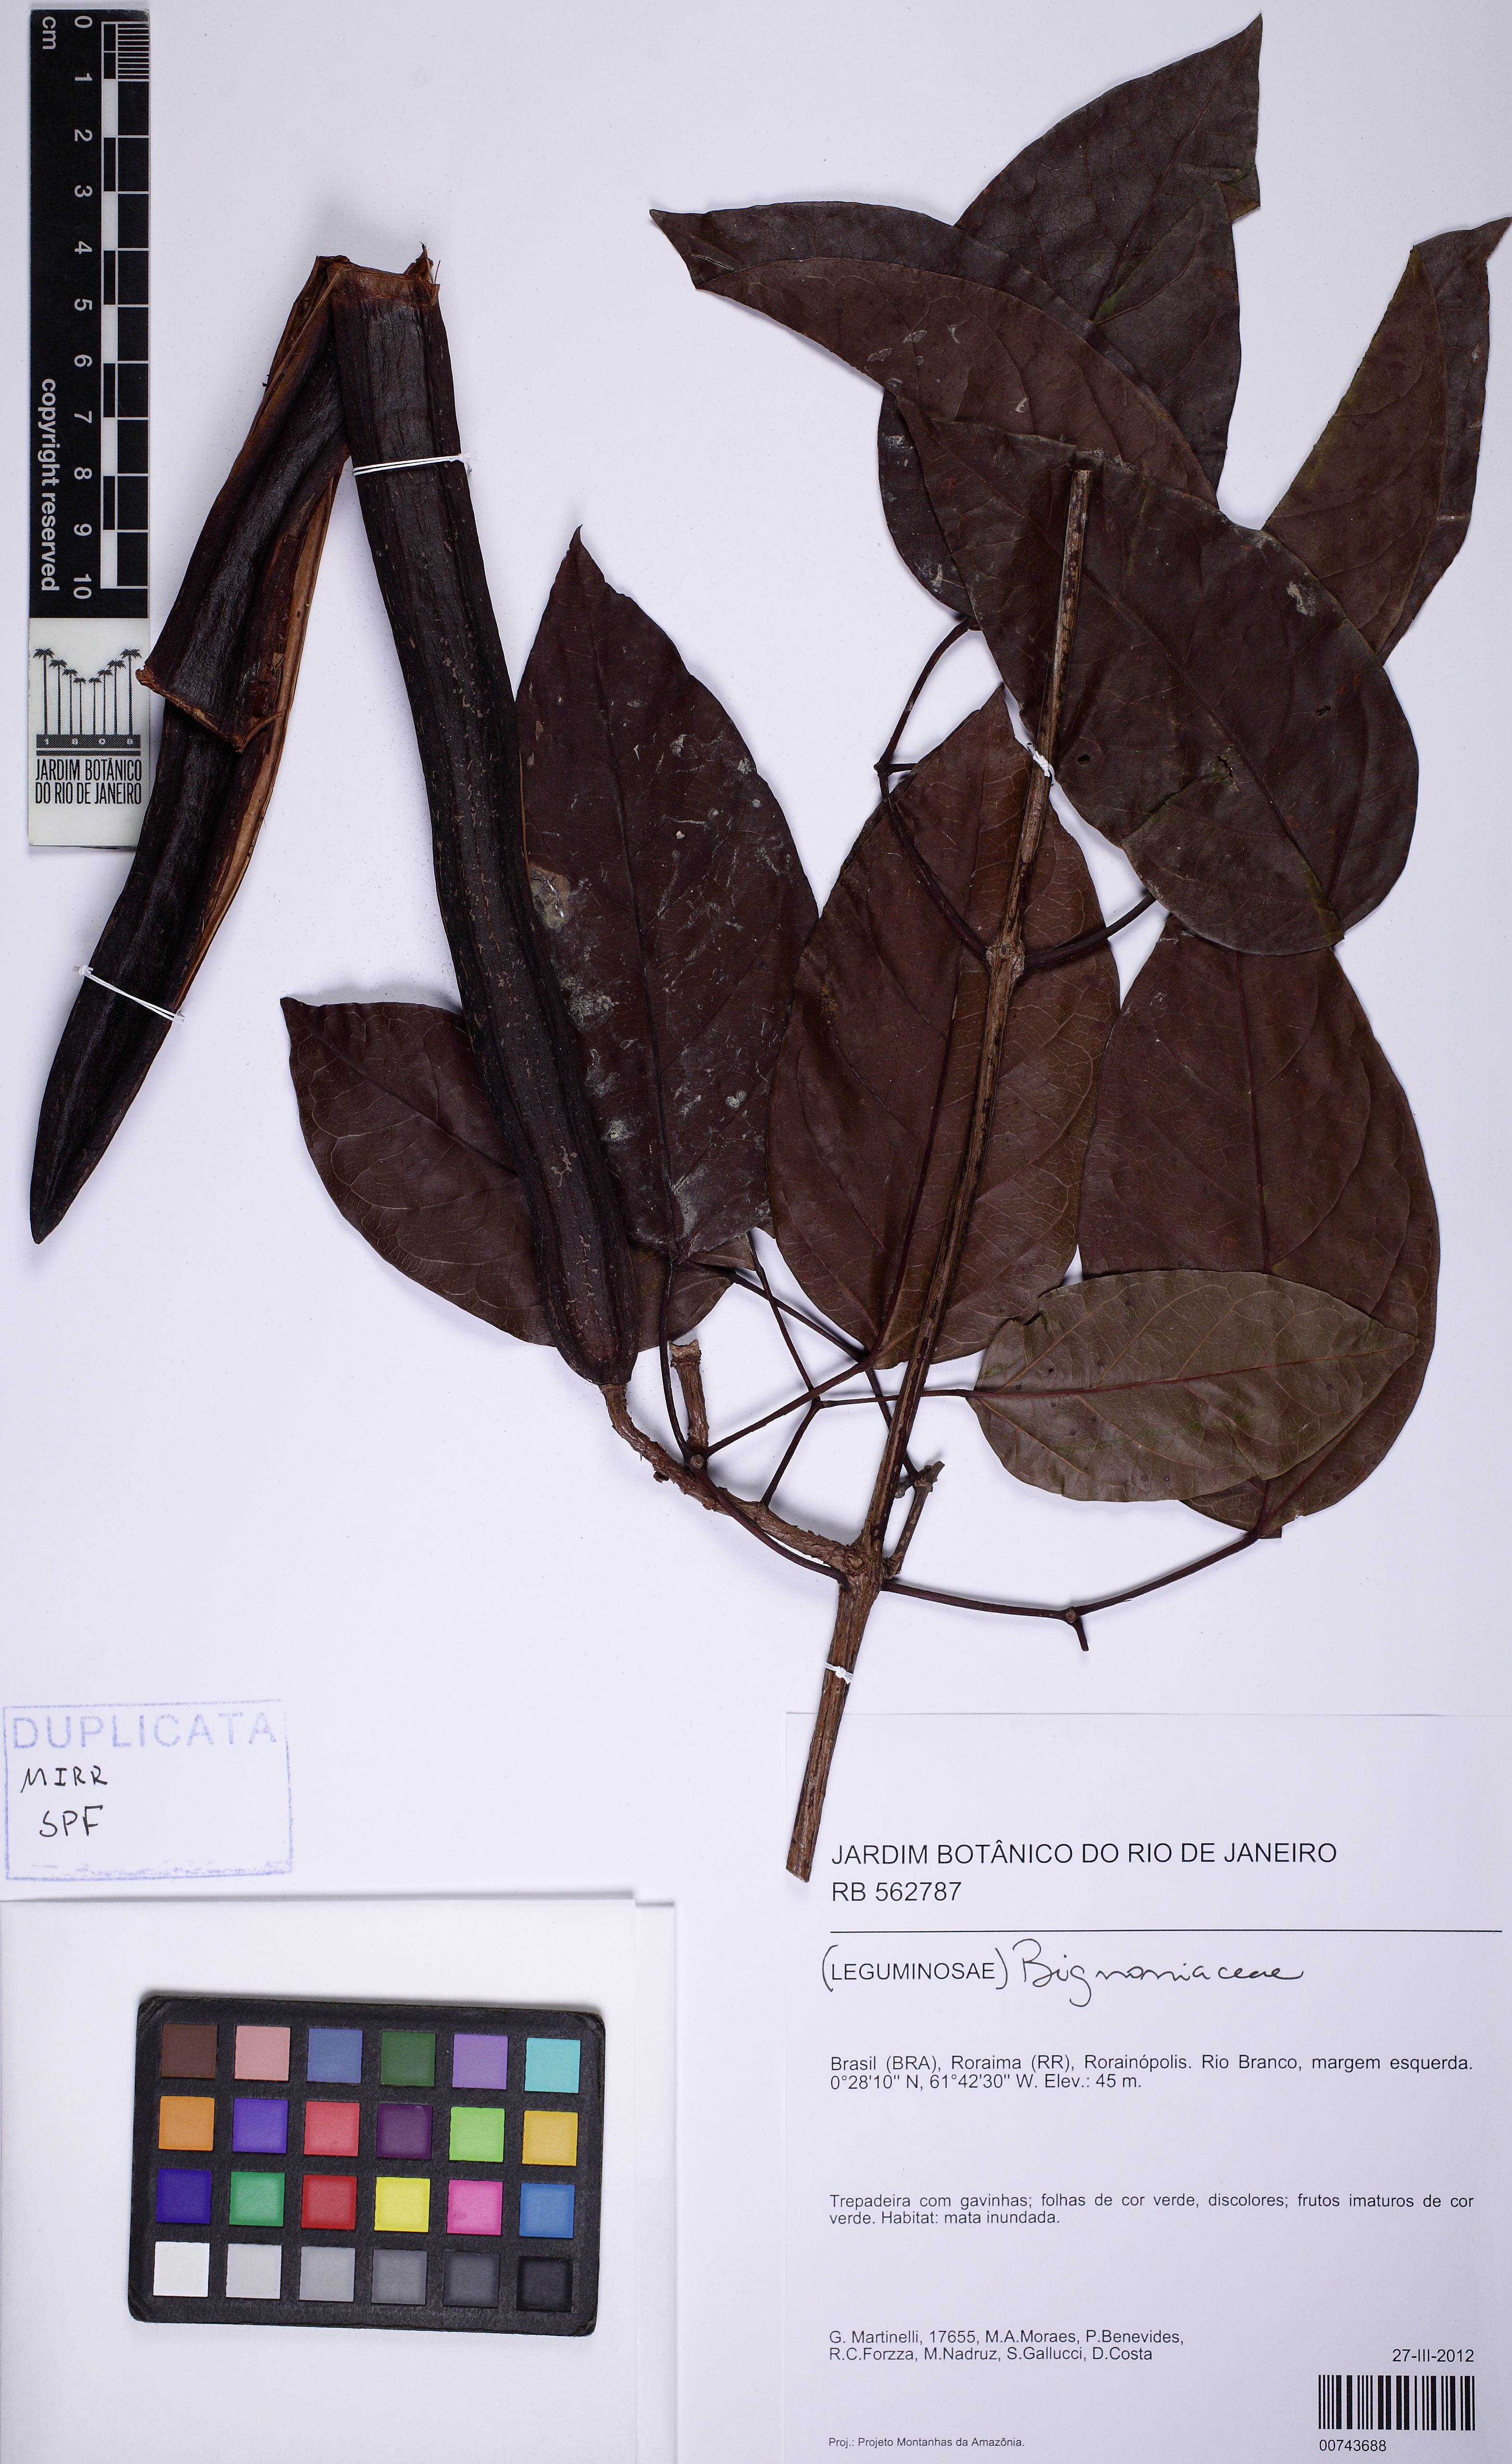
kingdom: Plantae
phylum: Tracheophyta
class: Magnoliopsida
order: Lamiales
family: Bignoniaceae
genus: Bignonia
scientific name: Bignonia aequinoctialis
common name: Garlicvine
